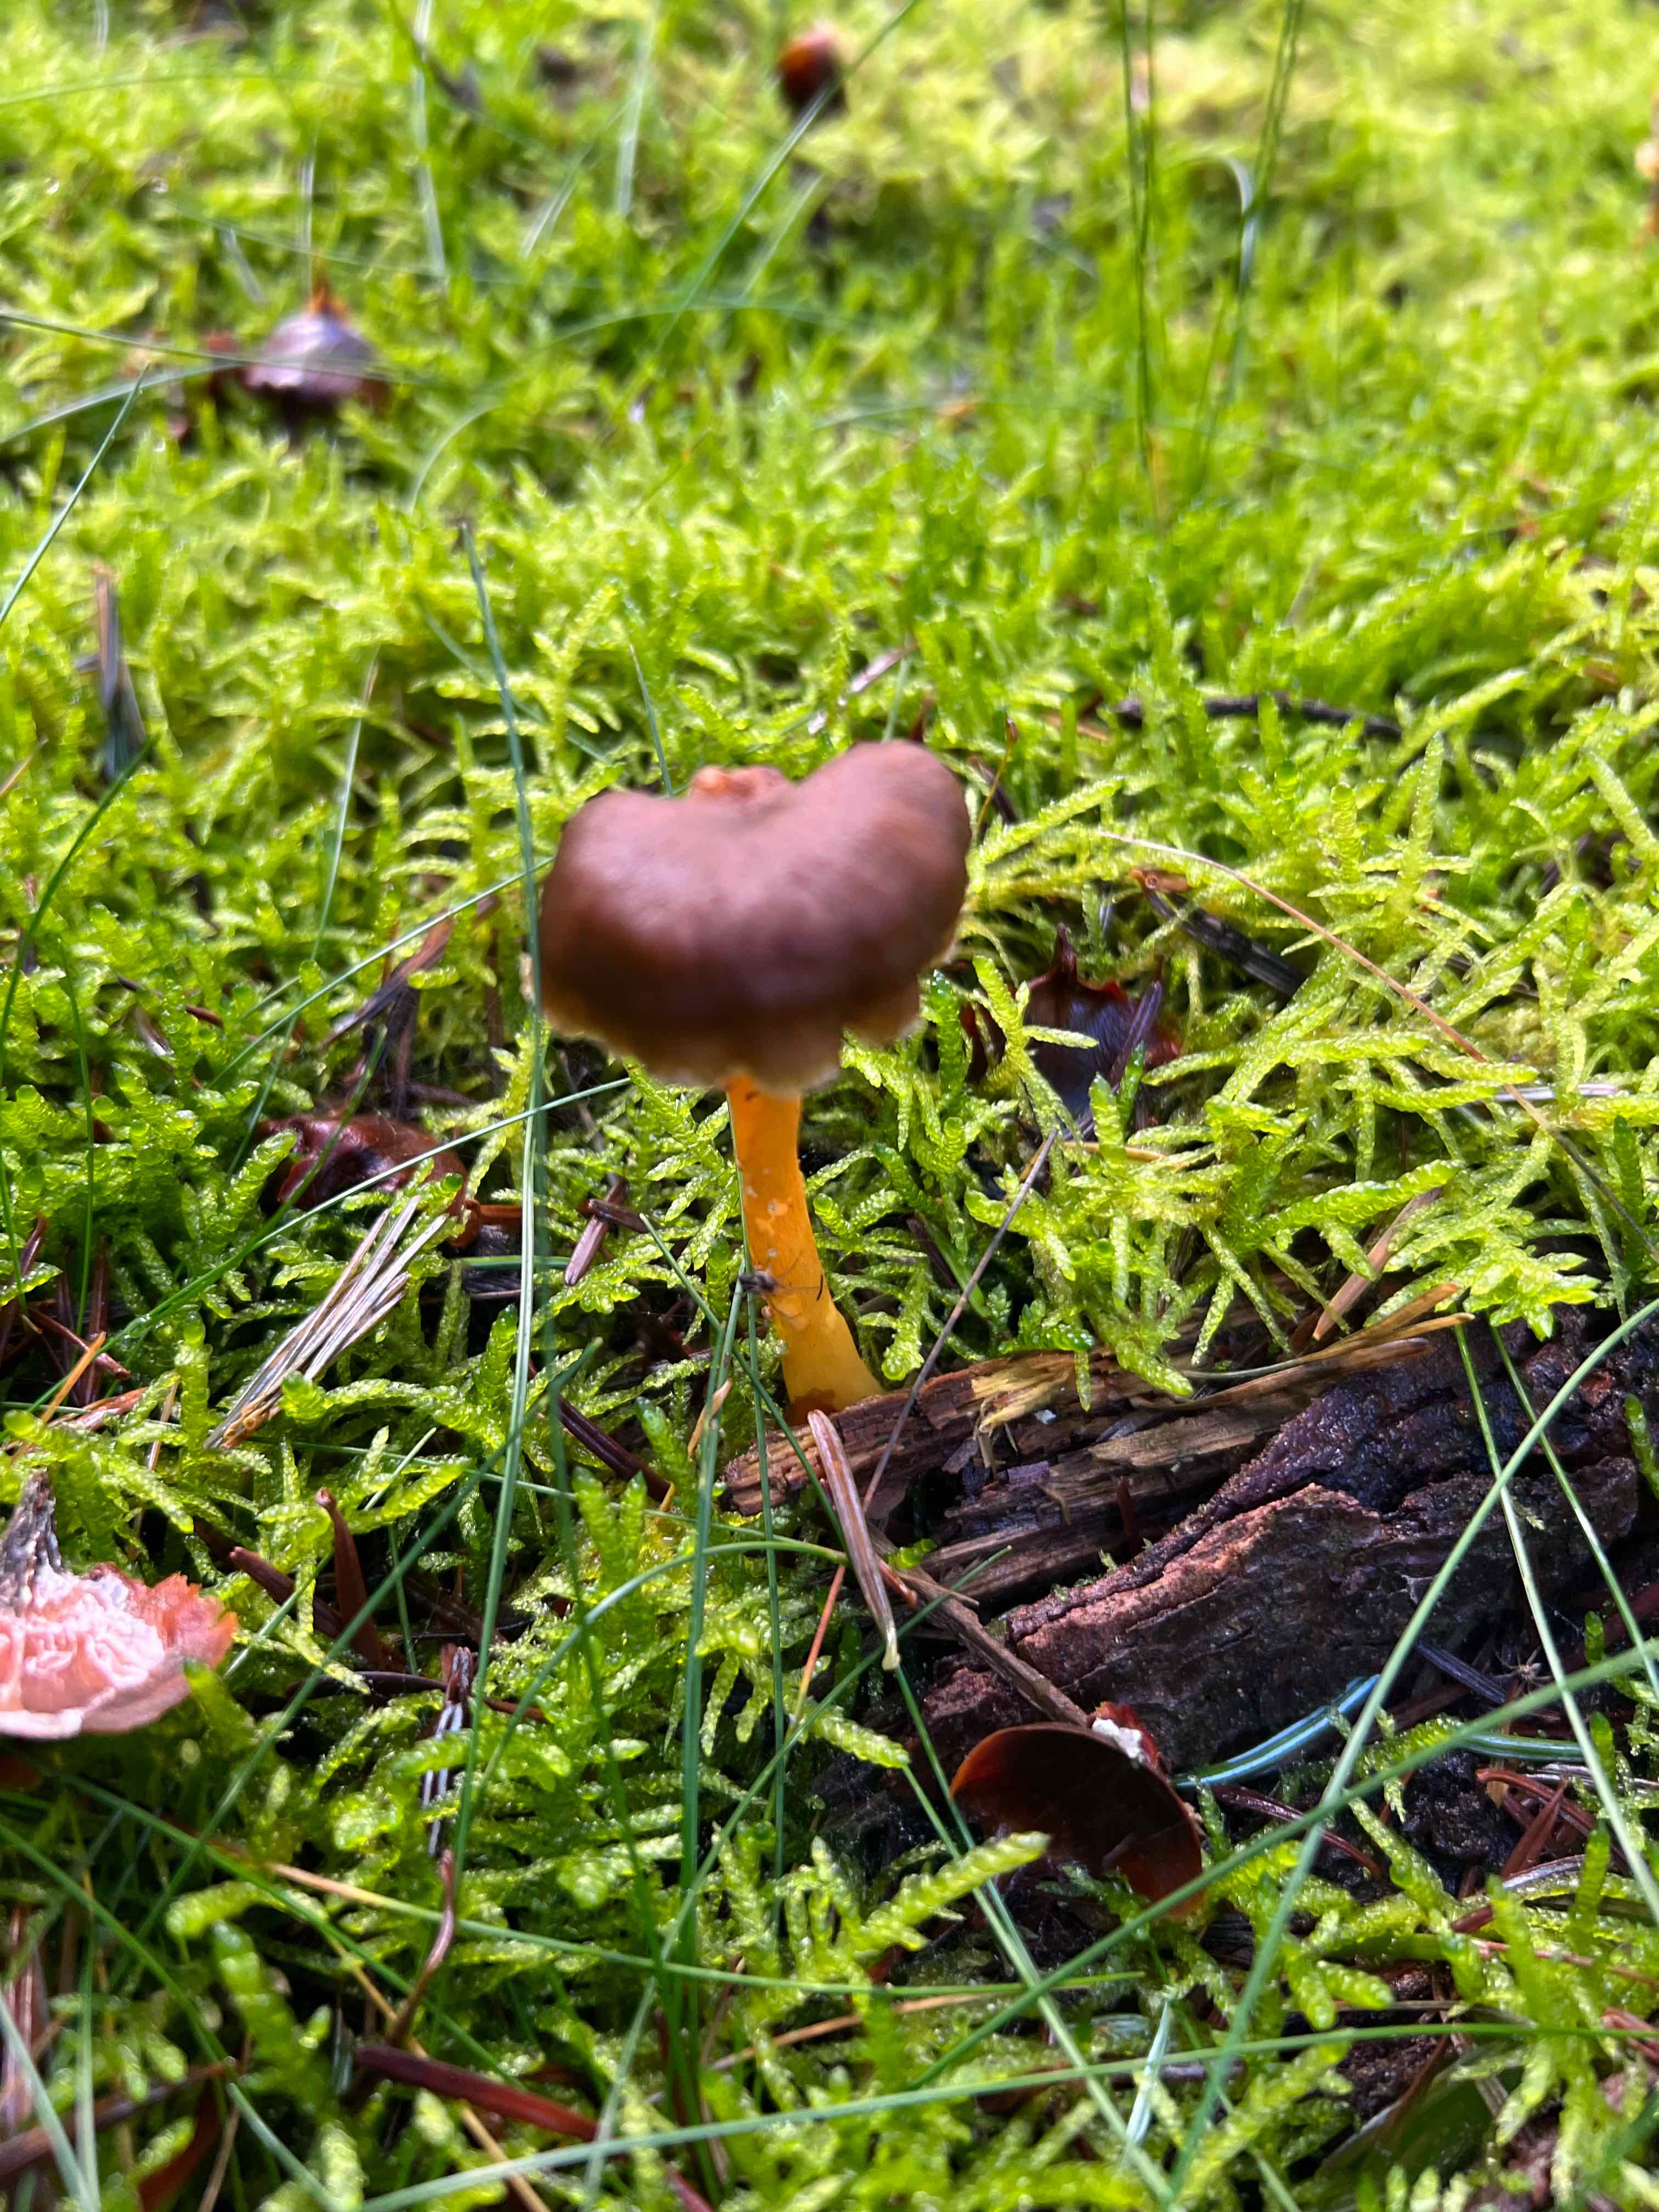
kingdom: Fungi
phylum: Basidiomycota
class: Agaricomycetes
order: Cantharellales
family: Hydnaceae
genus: Craterellus
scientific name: Craterellus tubaeformis
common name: tragt-kantarel
